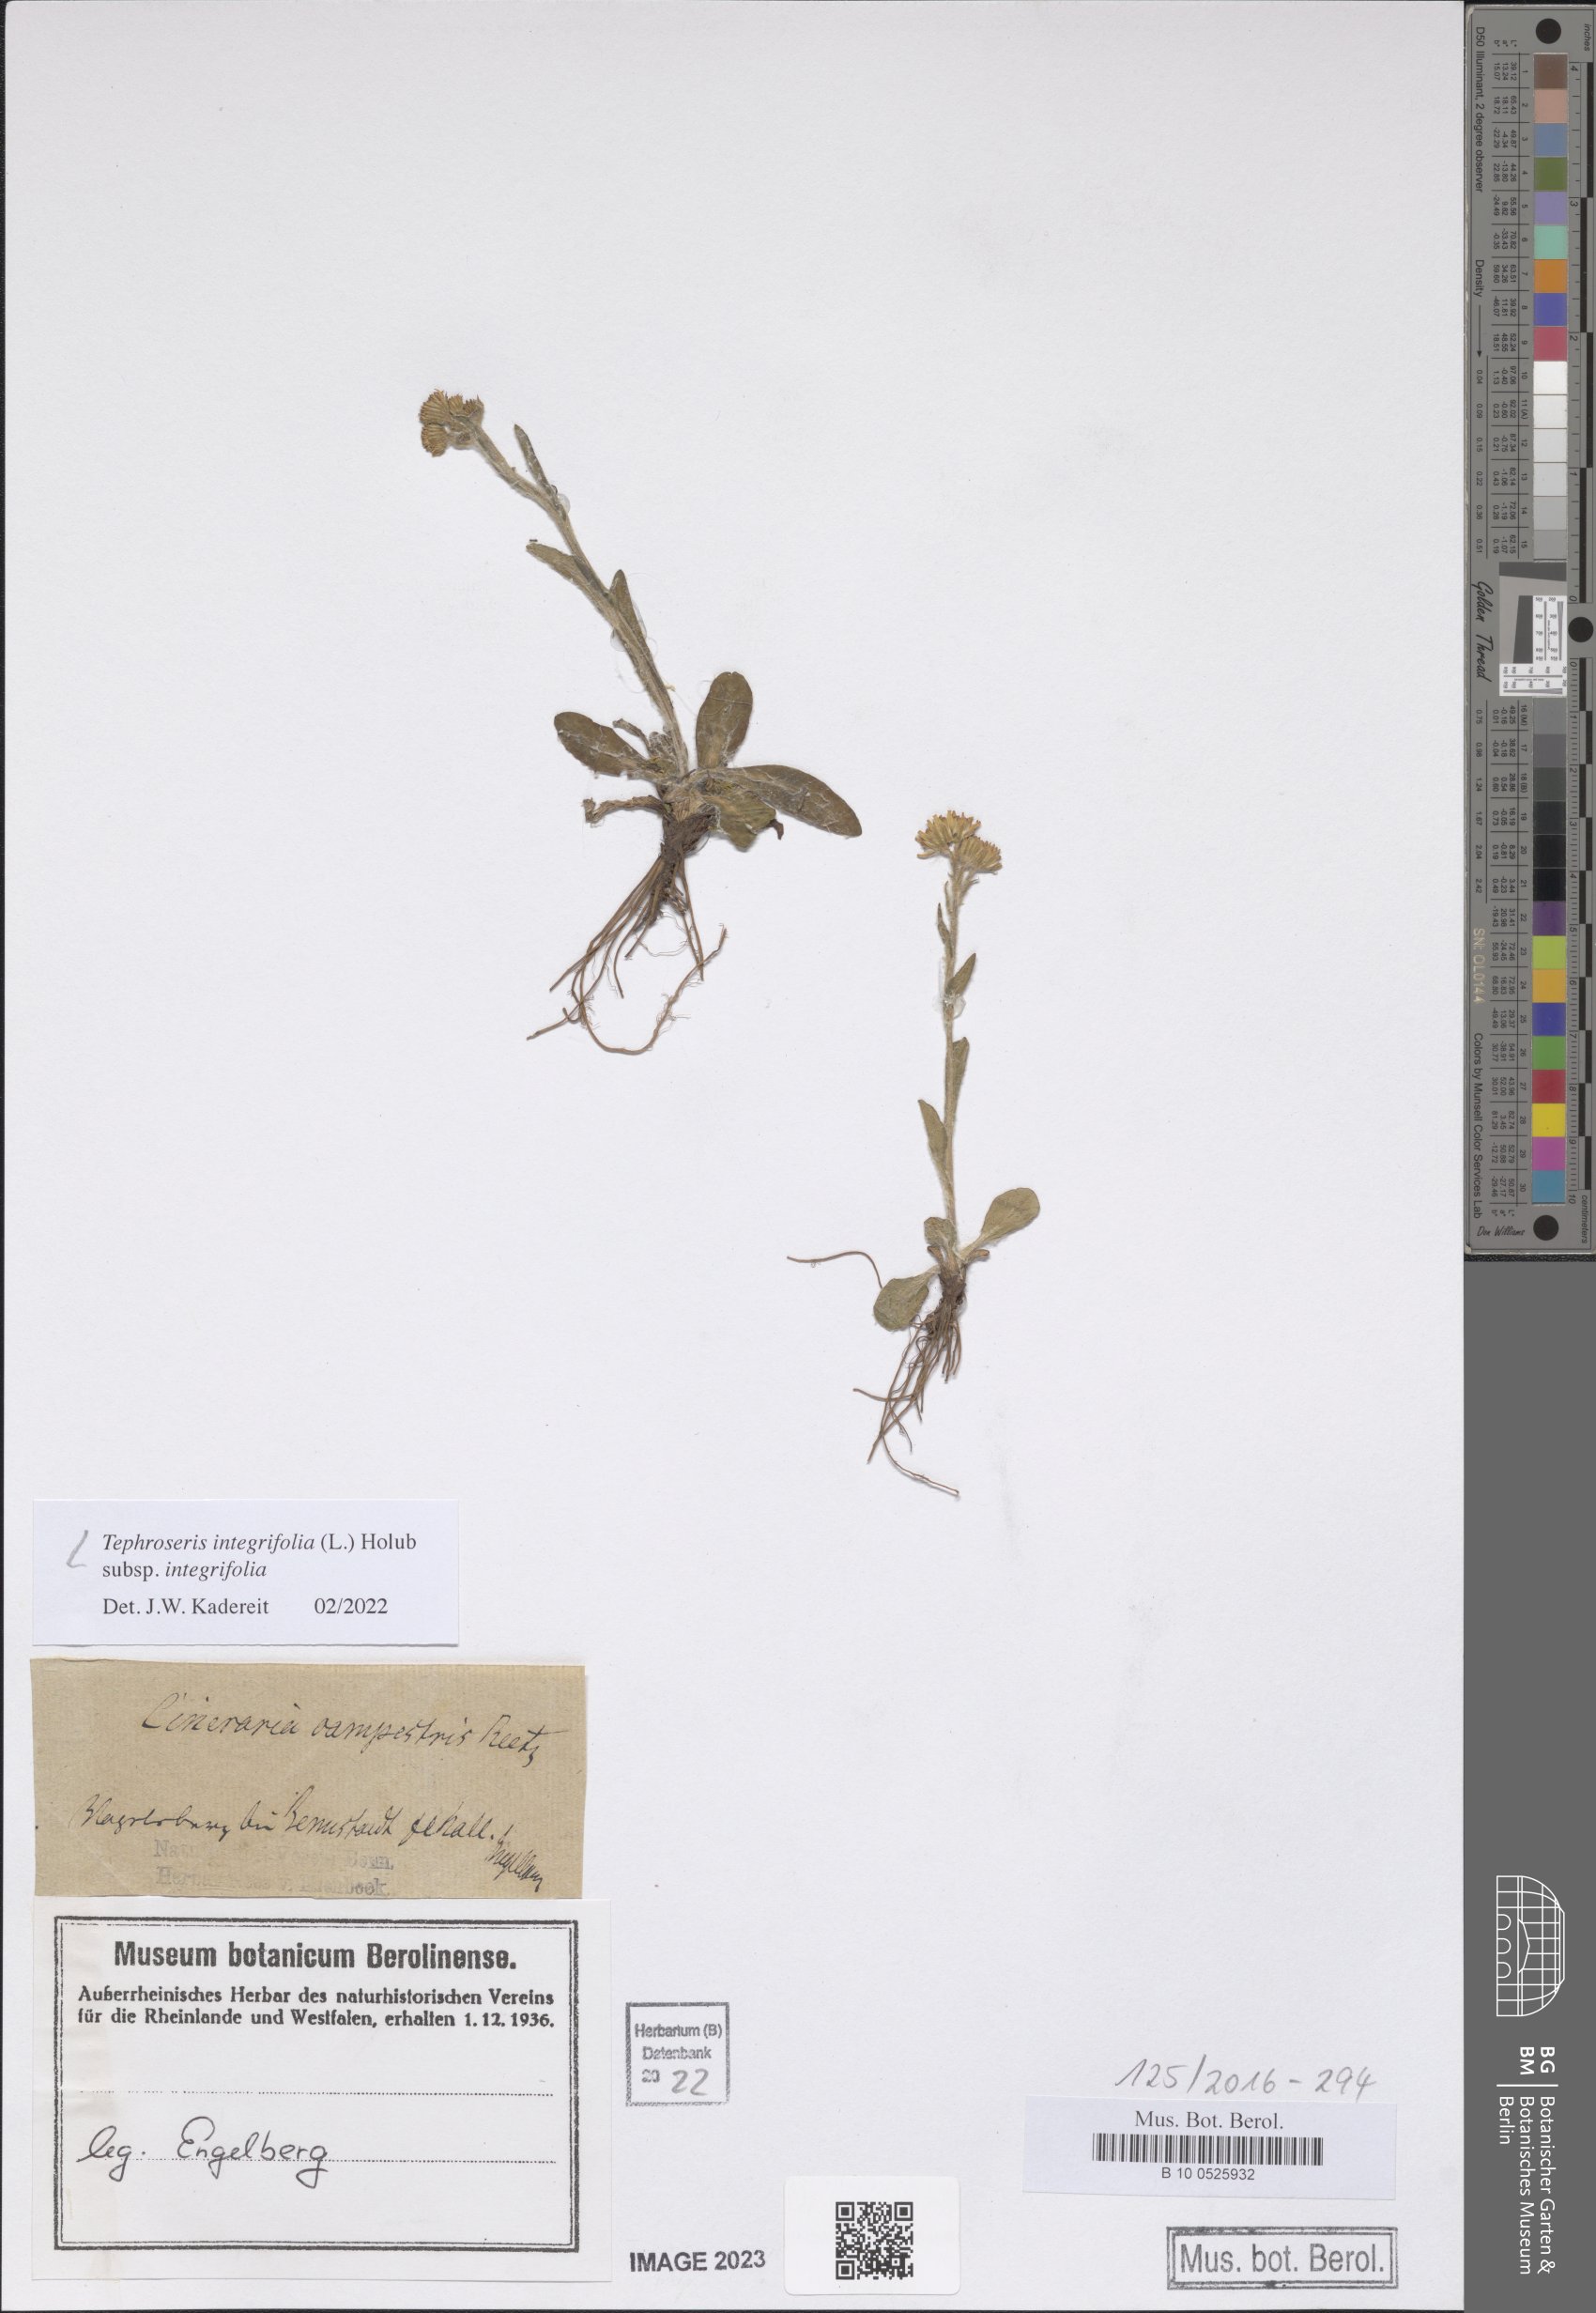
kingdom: Plantae
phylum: Tracheophyta
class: Magnoliopsida
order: Asterales
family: Asteraceae
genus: Tephroseris
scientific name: Tephroseris integrifolia
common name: Field fleawort
